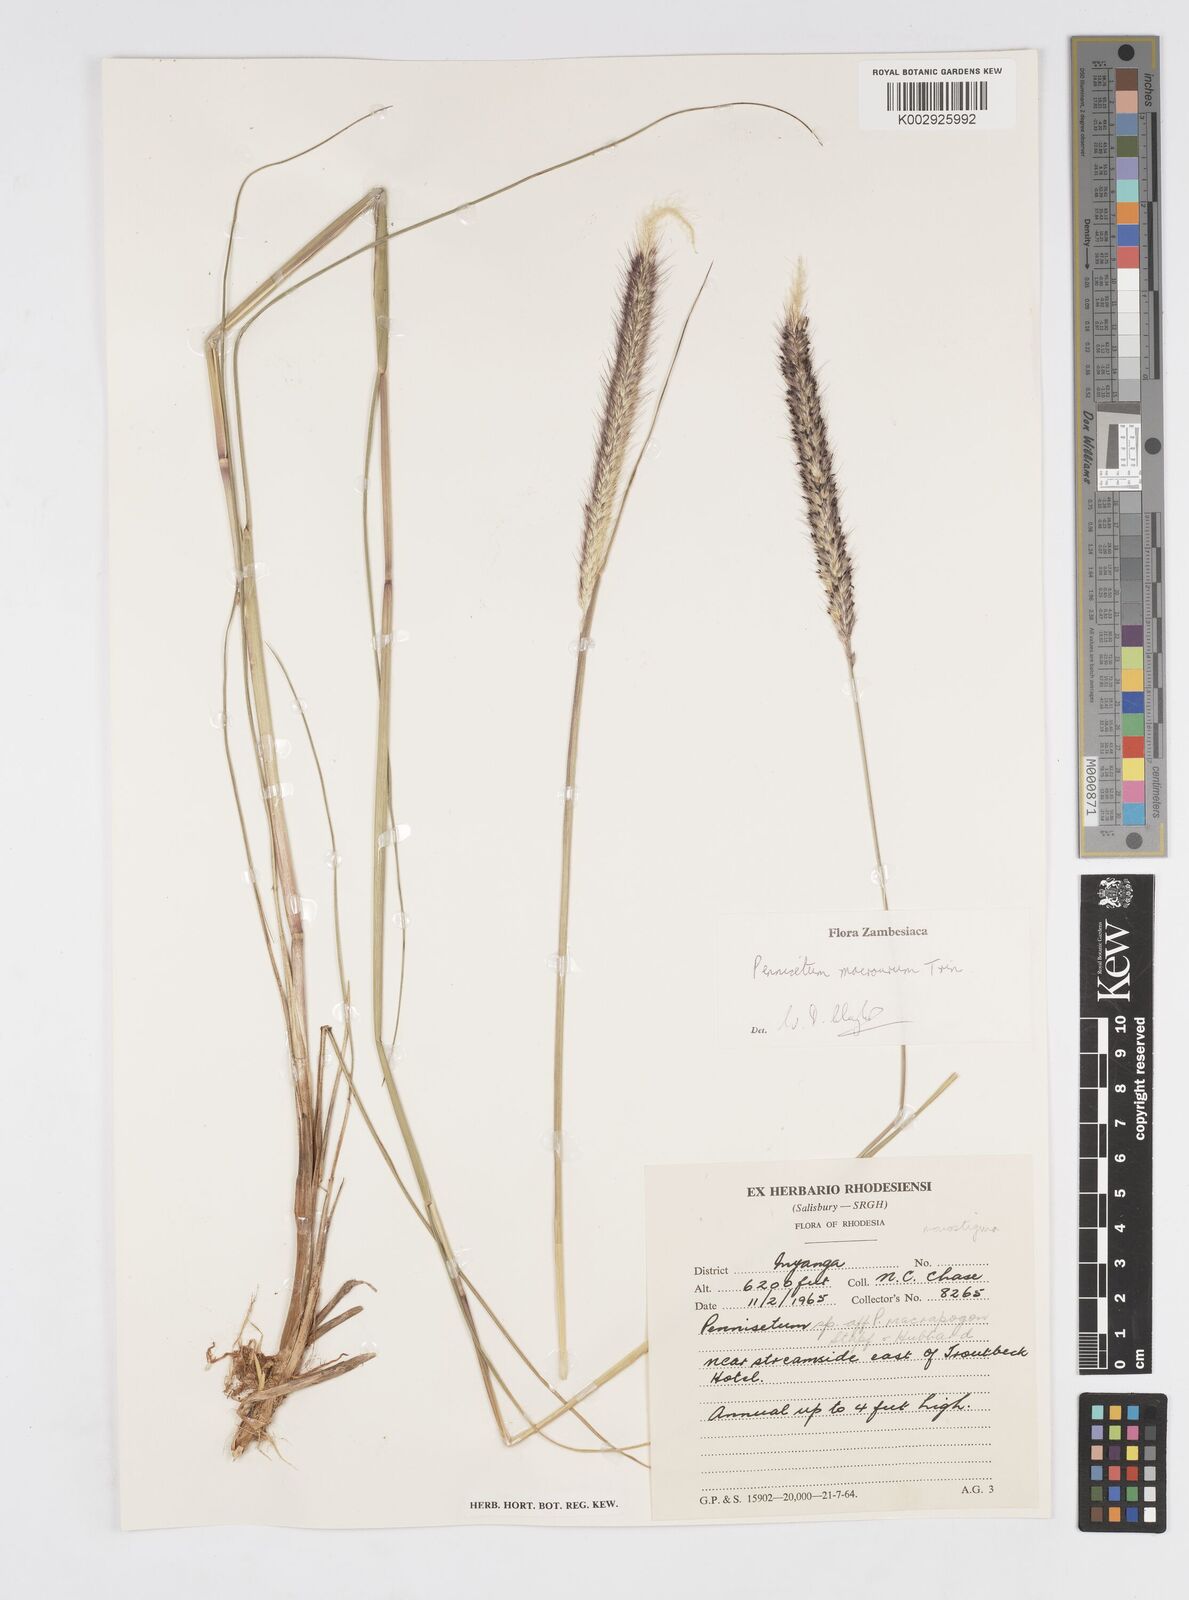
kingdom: Plantae
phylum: Tracheophyta
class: Liliopsida
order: Poales
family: Poaceae
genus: Cenchrus
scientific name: Cenchrus caudatus
